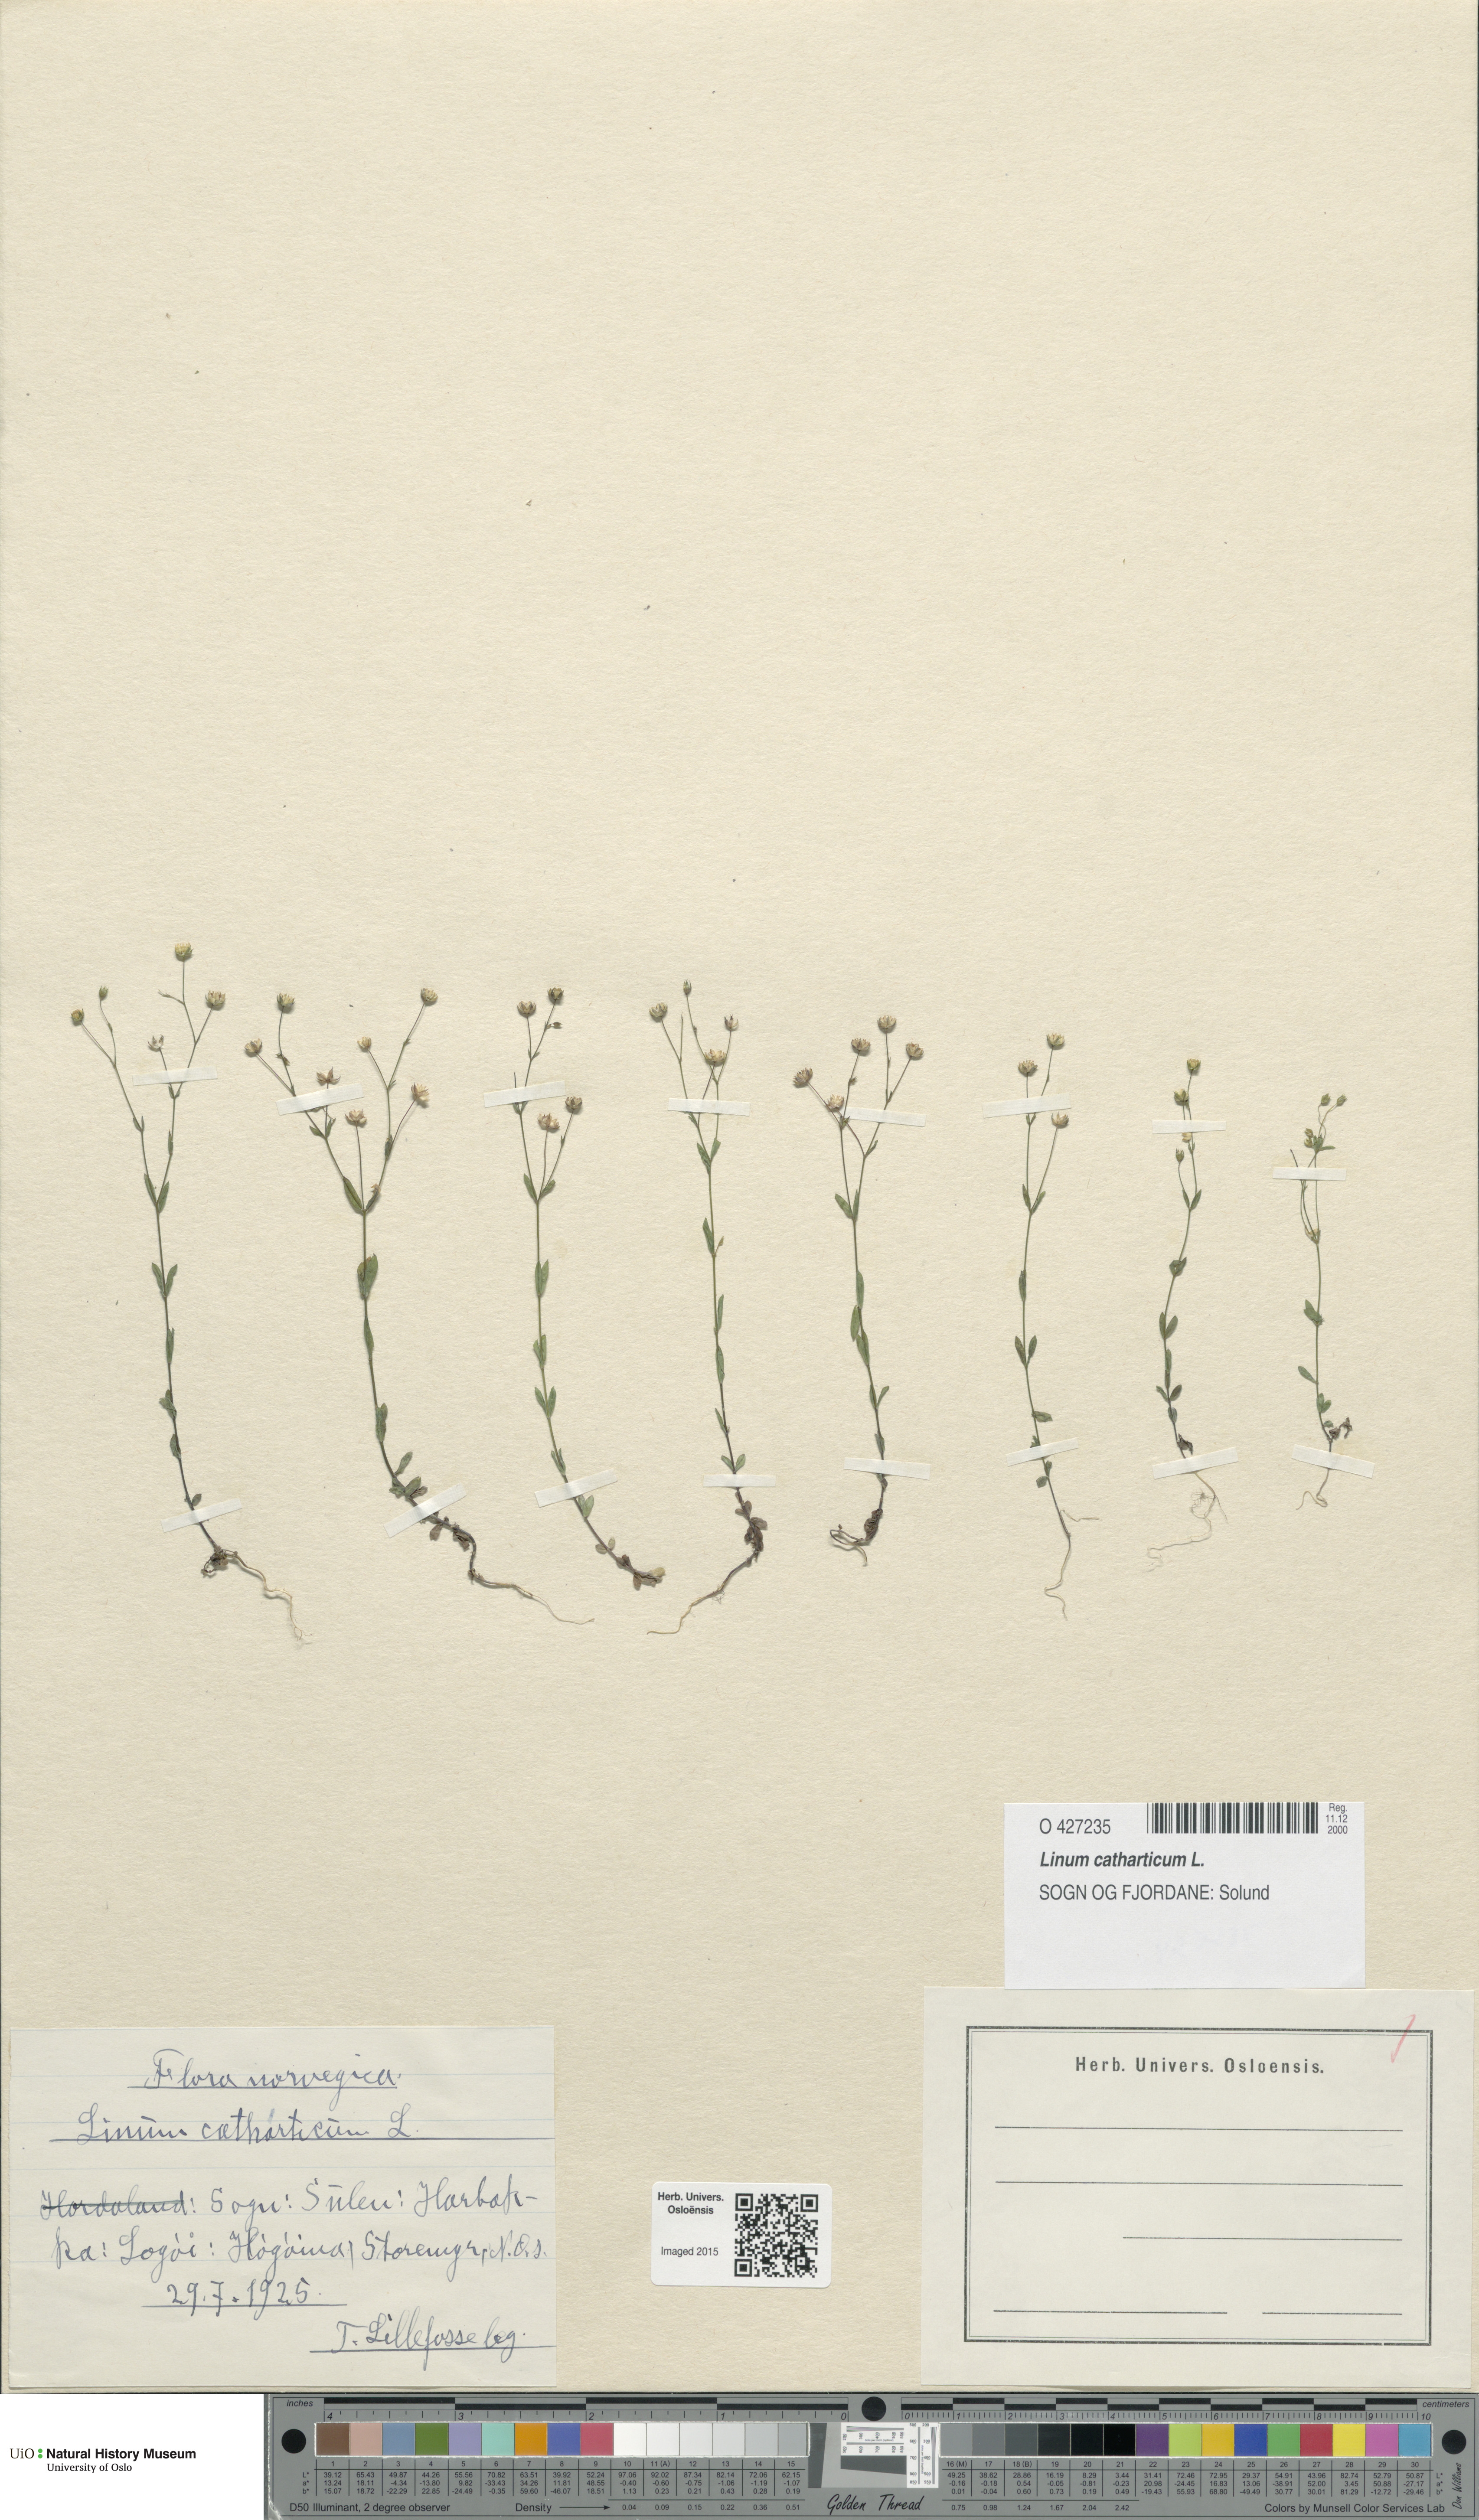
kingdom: Plantae
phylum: Tracheophyta
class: Magnoliopsida
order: Malpighiales
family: Linaceae
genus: Linum
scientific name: Linum catharticum
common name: Fairy flax
